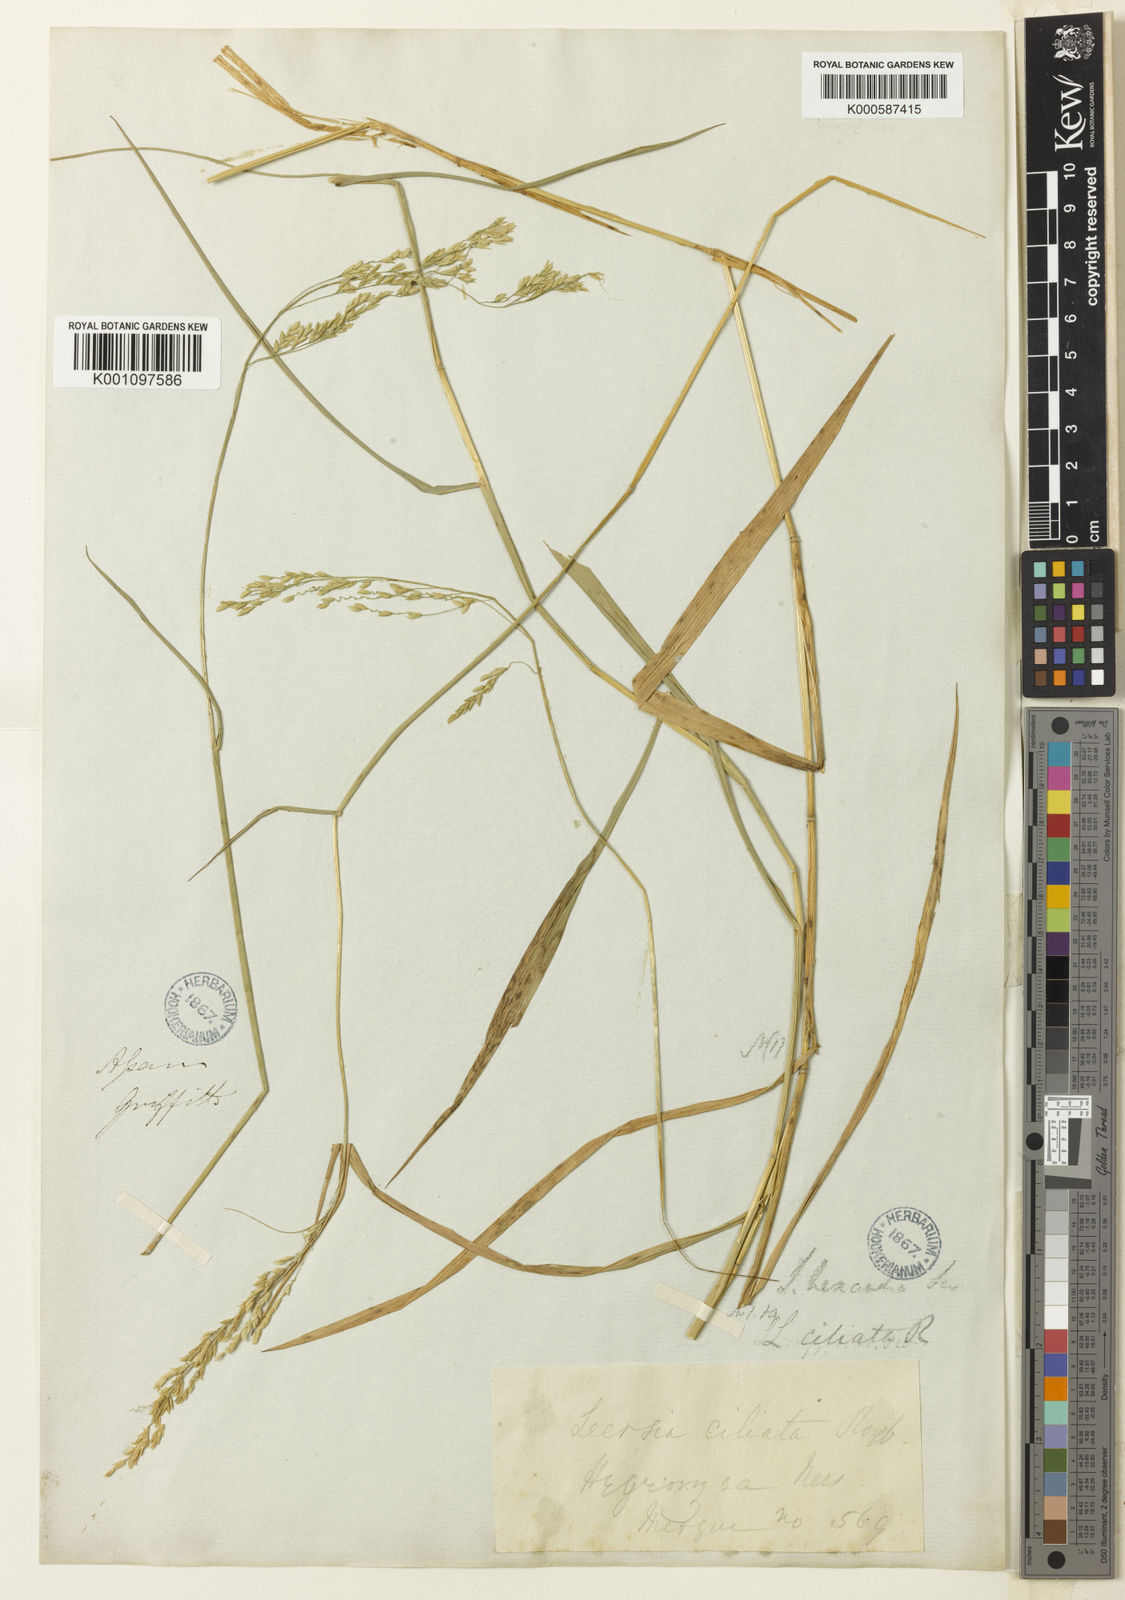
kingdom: Plantae
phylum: Tracheophyta
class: Liliopsida
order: Poales
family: Poaceae
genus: Leersia
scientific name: Leersia hexandra
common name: Southern cut grass
